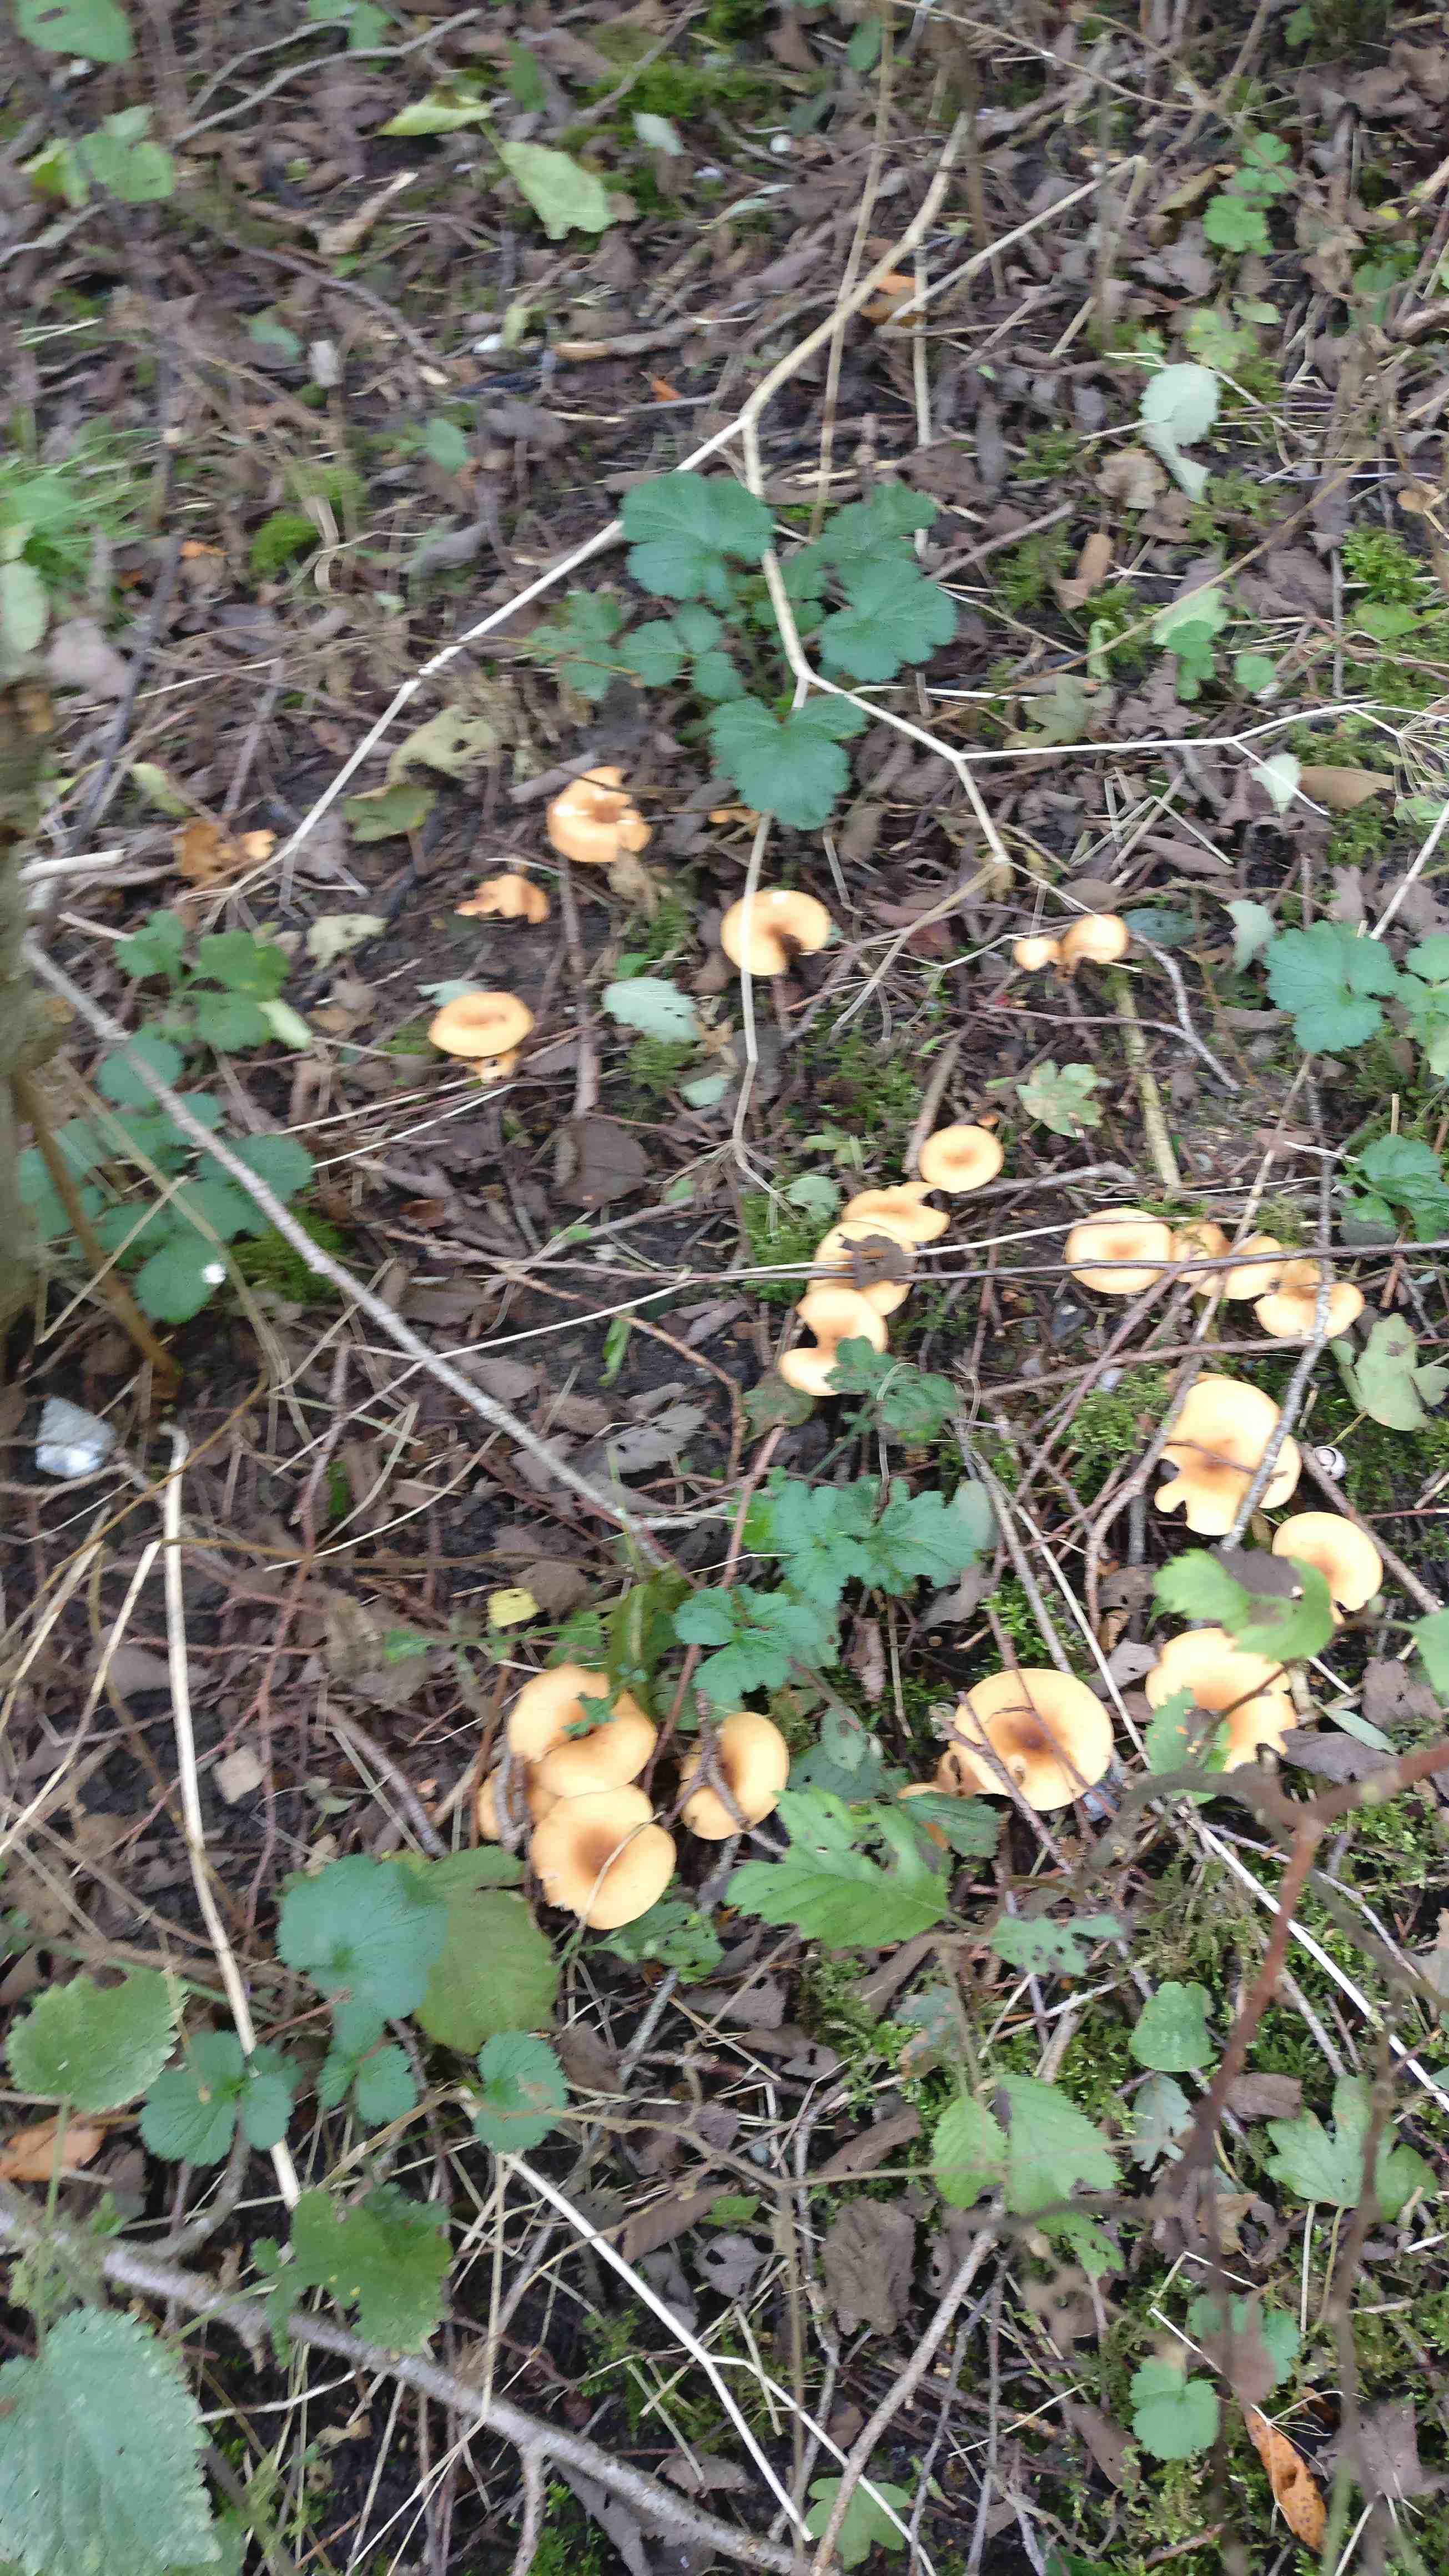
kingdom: Fungi
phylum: Basidiomycota
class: Agaricomycetes
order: Agaricales
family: Tricholomataceae
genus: Paralepista
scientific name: Paralepista flaccida
